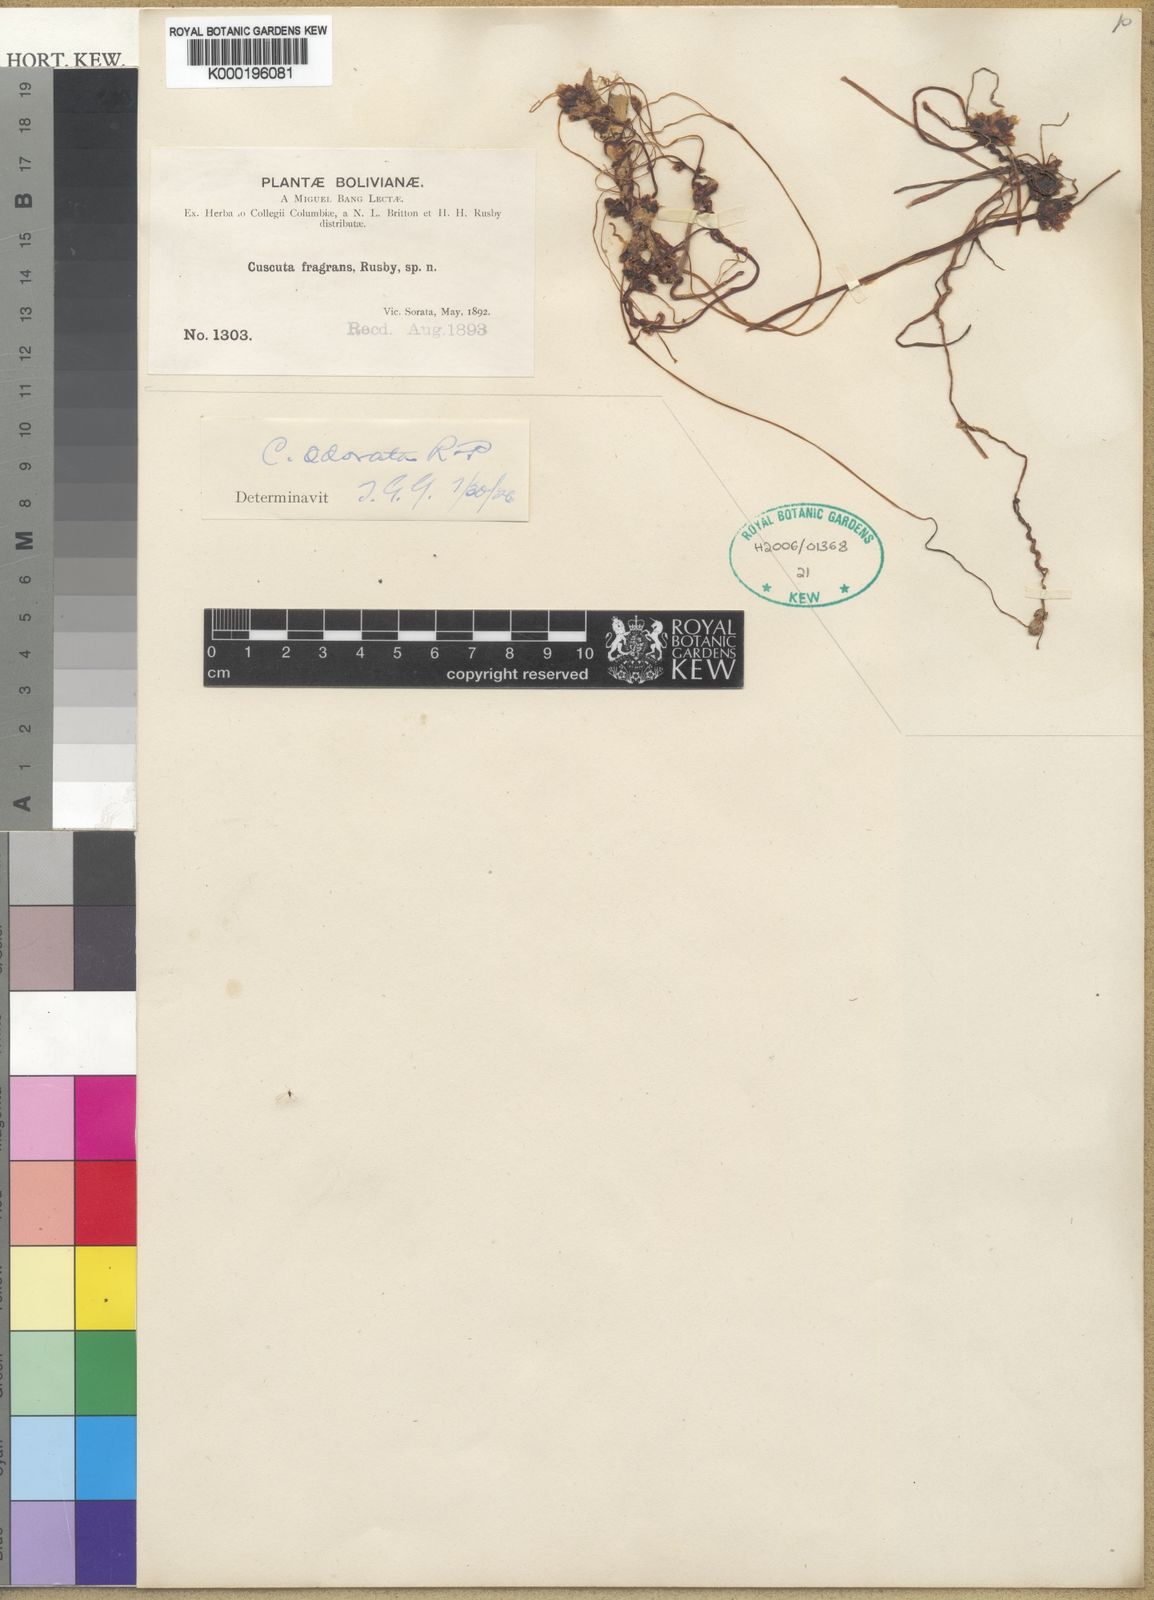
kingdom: Plantae
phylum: Tracheophyta
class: Magnoliopsida
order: Solanales
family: Convolvulaceae
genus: Cuscuta
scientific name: Cuscuta odorata
